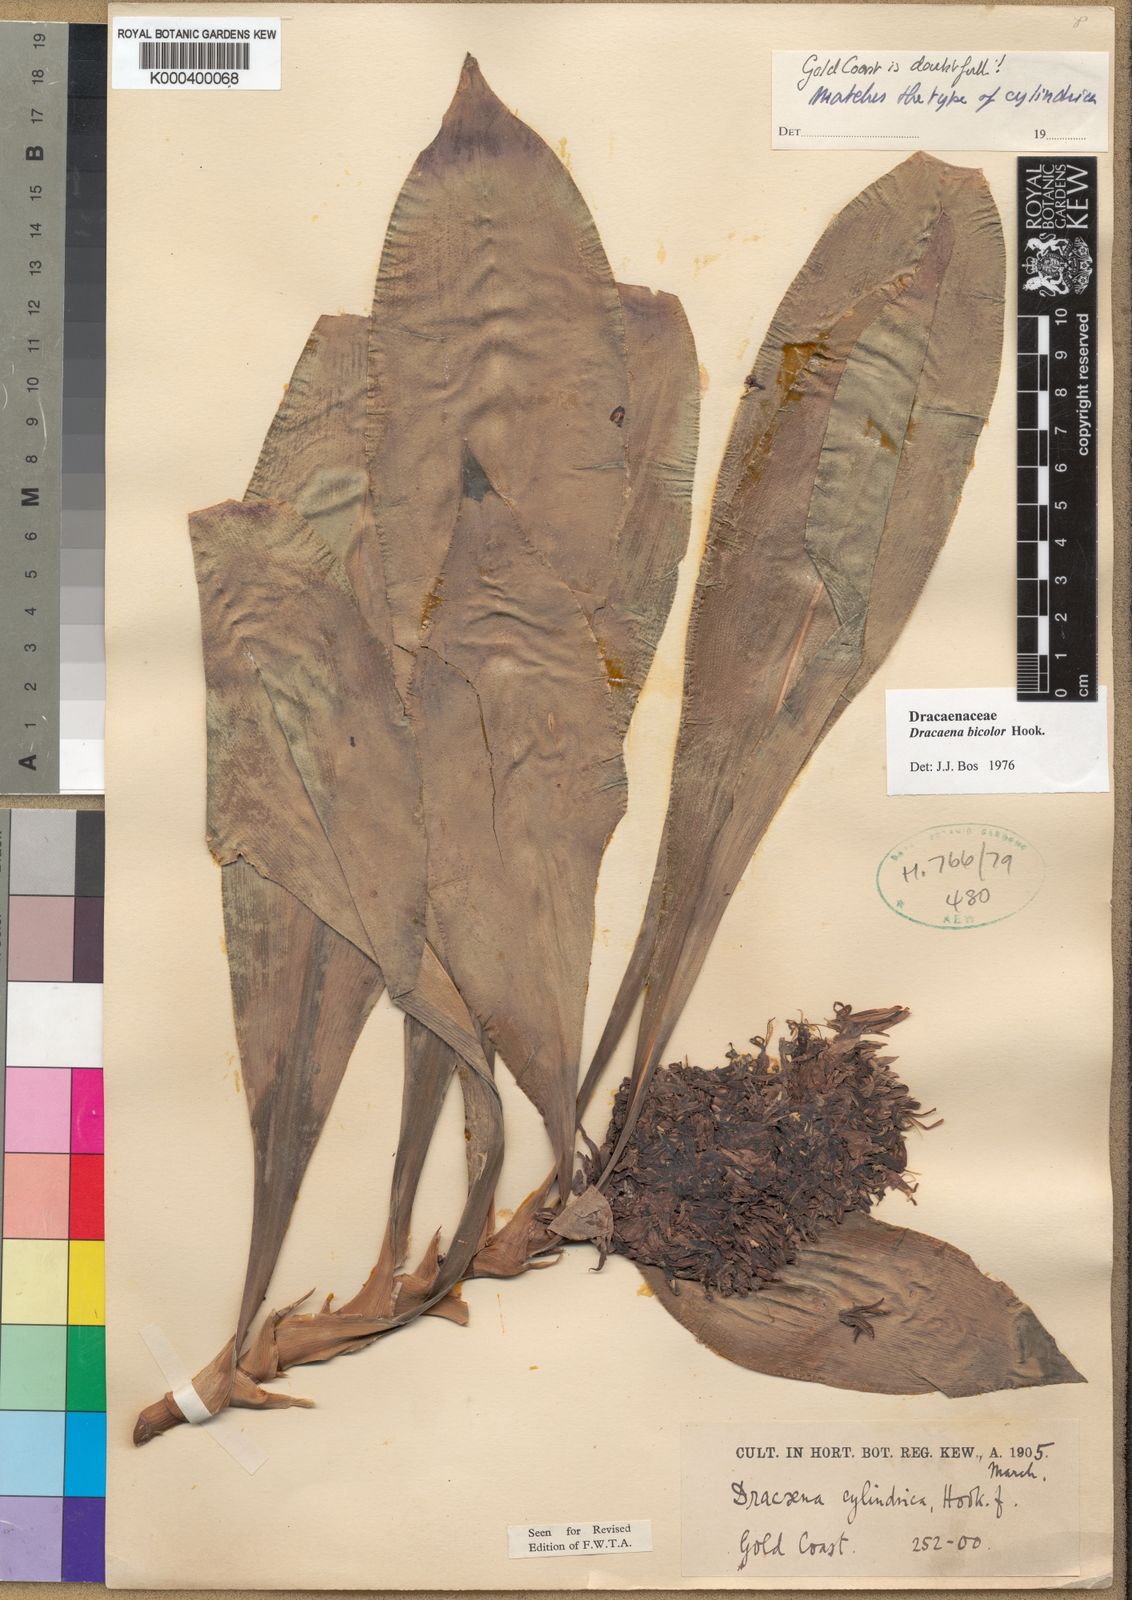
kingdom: Plantae
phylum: Tracheophyta
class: Liliopsida
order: Asparagales
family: Asparagaceae
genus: Dracaena
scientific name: Dracaena bicolor
